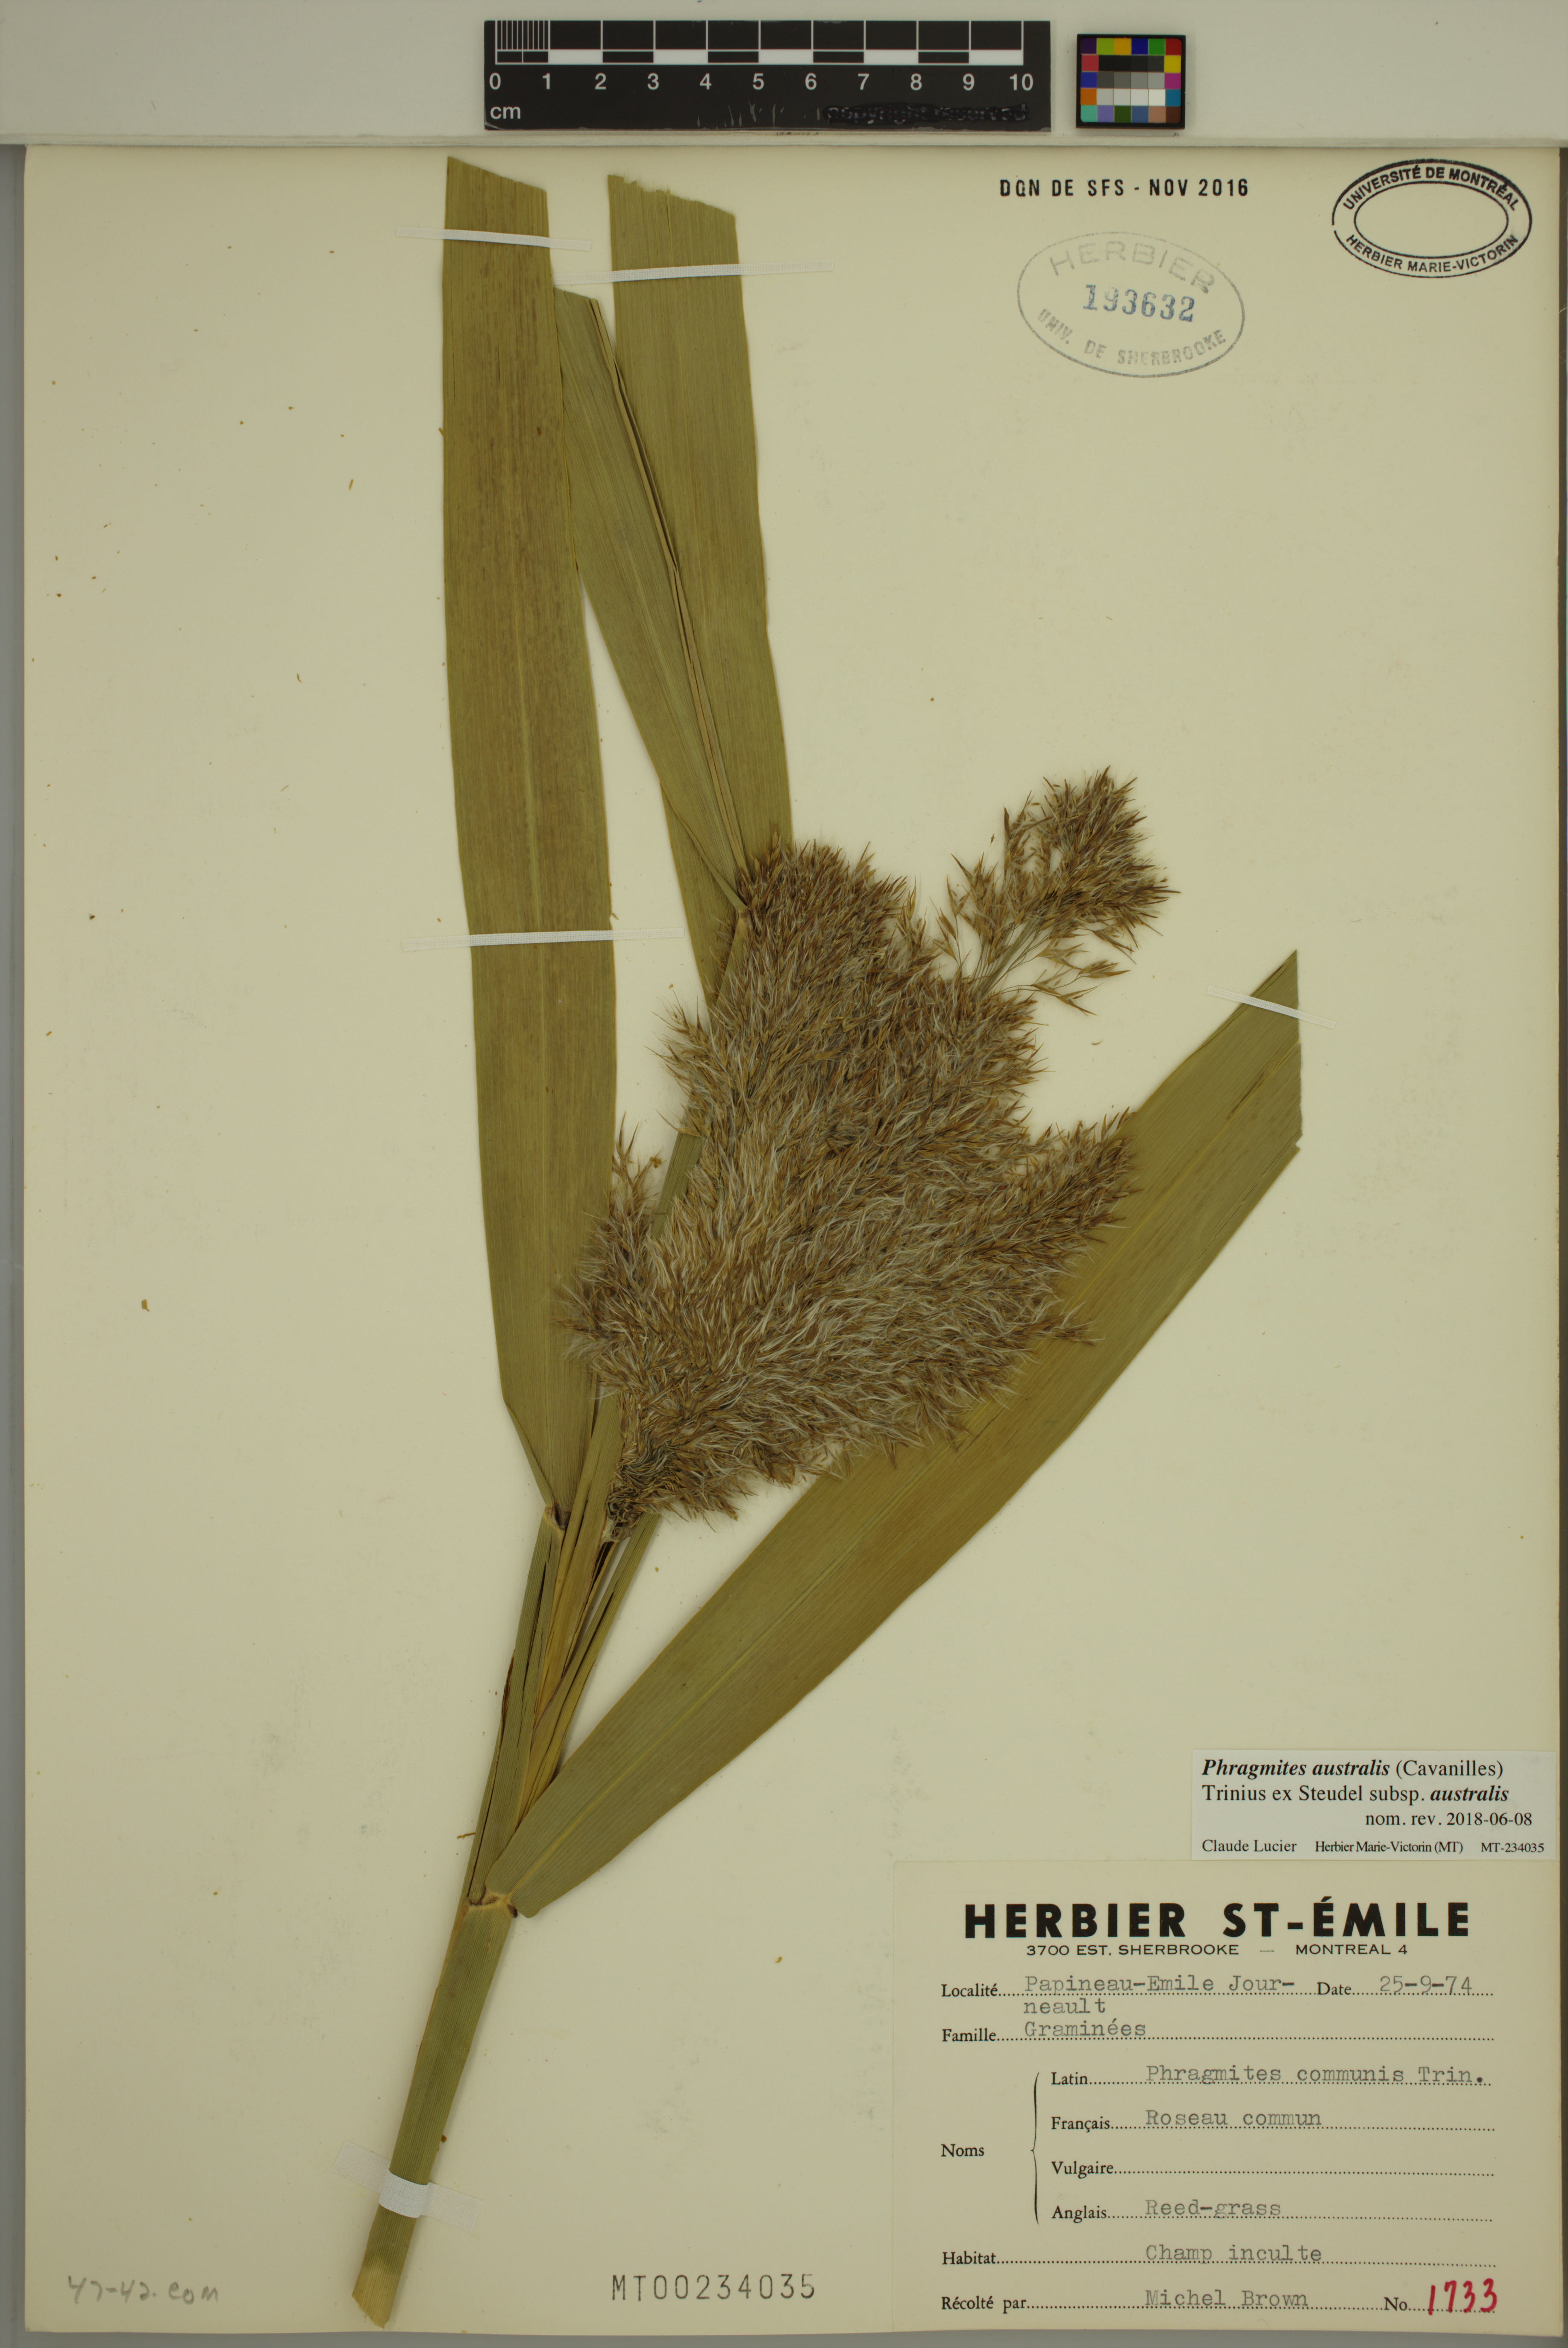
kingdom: Plantae
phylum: Tracheophyta
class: Liliopsida
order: Poales
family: Poaceae
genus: Phragmites
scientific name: Phragmites australis
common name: Common reed
